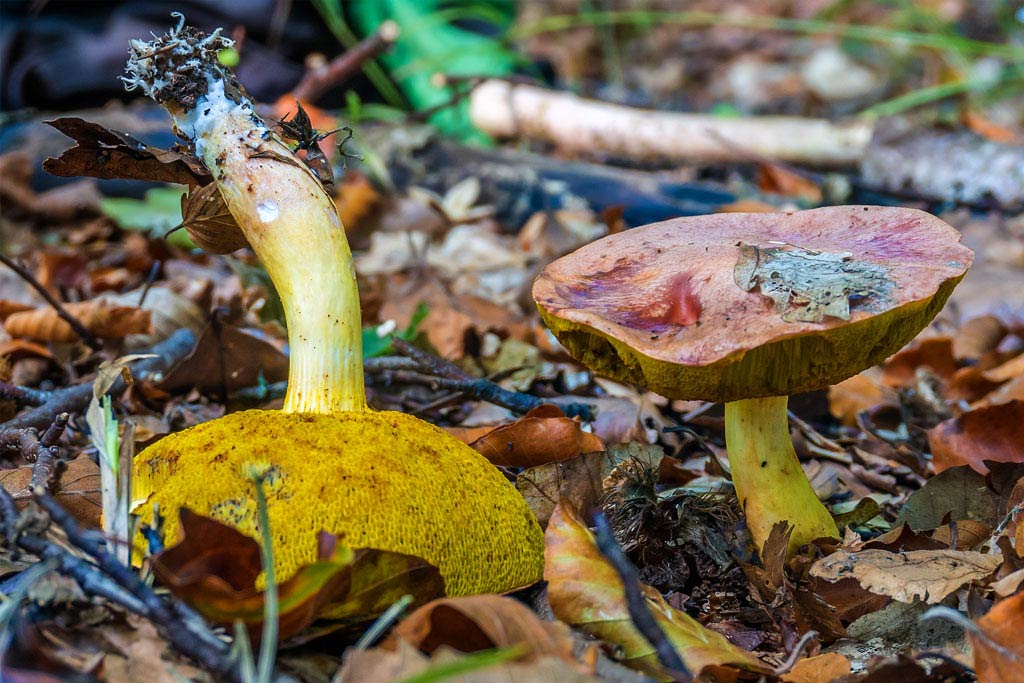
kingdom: Fungi
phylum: Basidiomycota
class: Agaricomycetes
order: Boletales
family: Boletaceae
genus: Aureoboletus
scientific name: Aureoboletus gentilis
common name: guldrørhat
